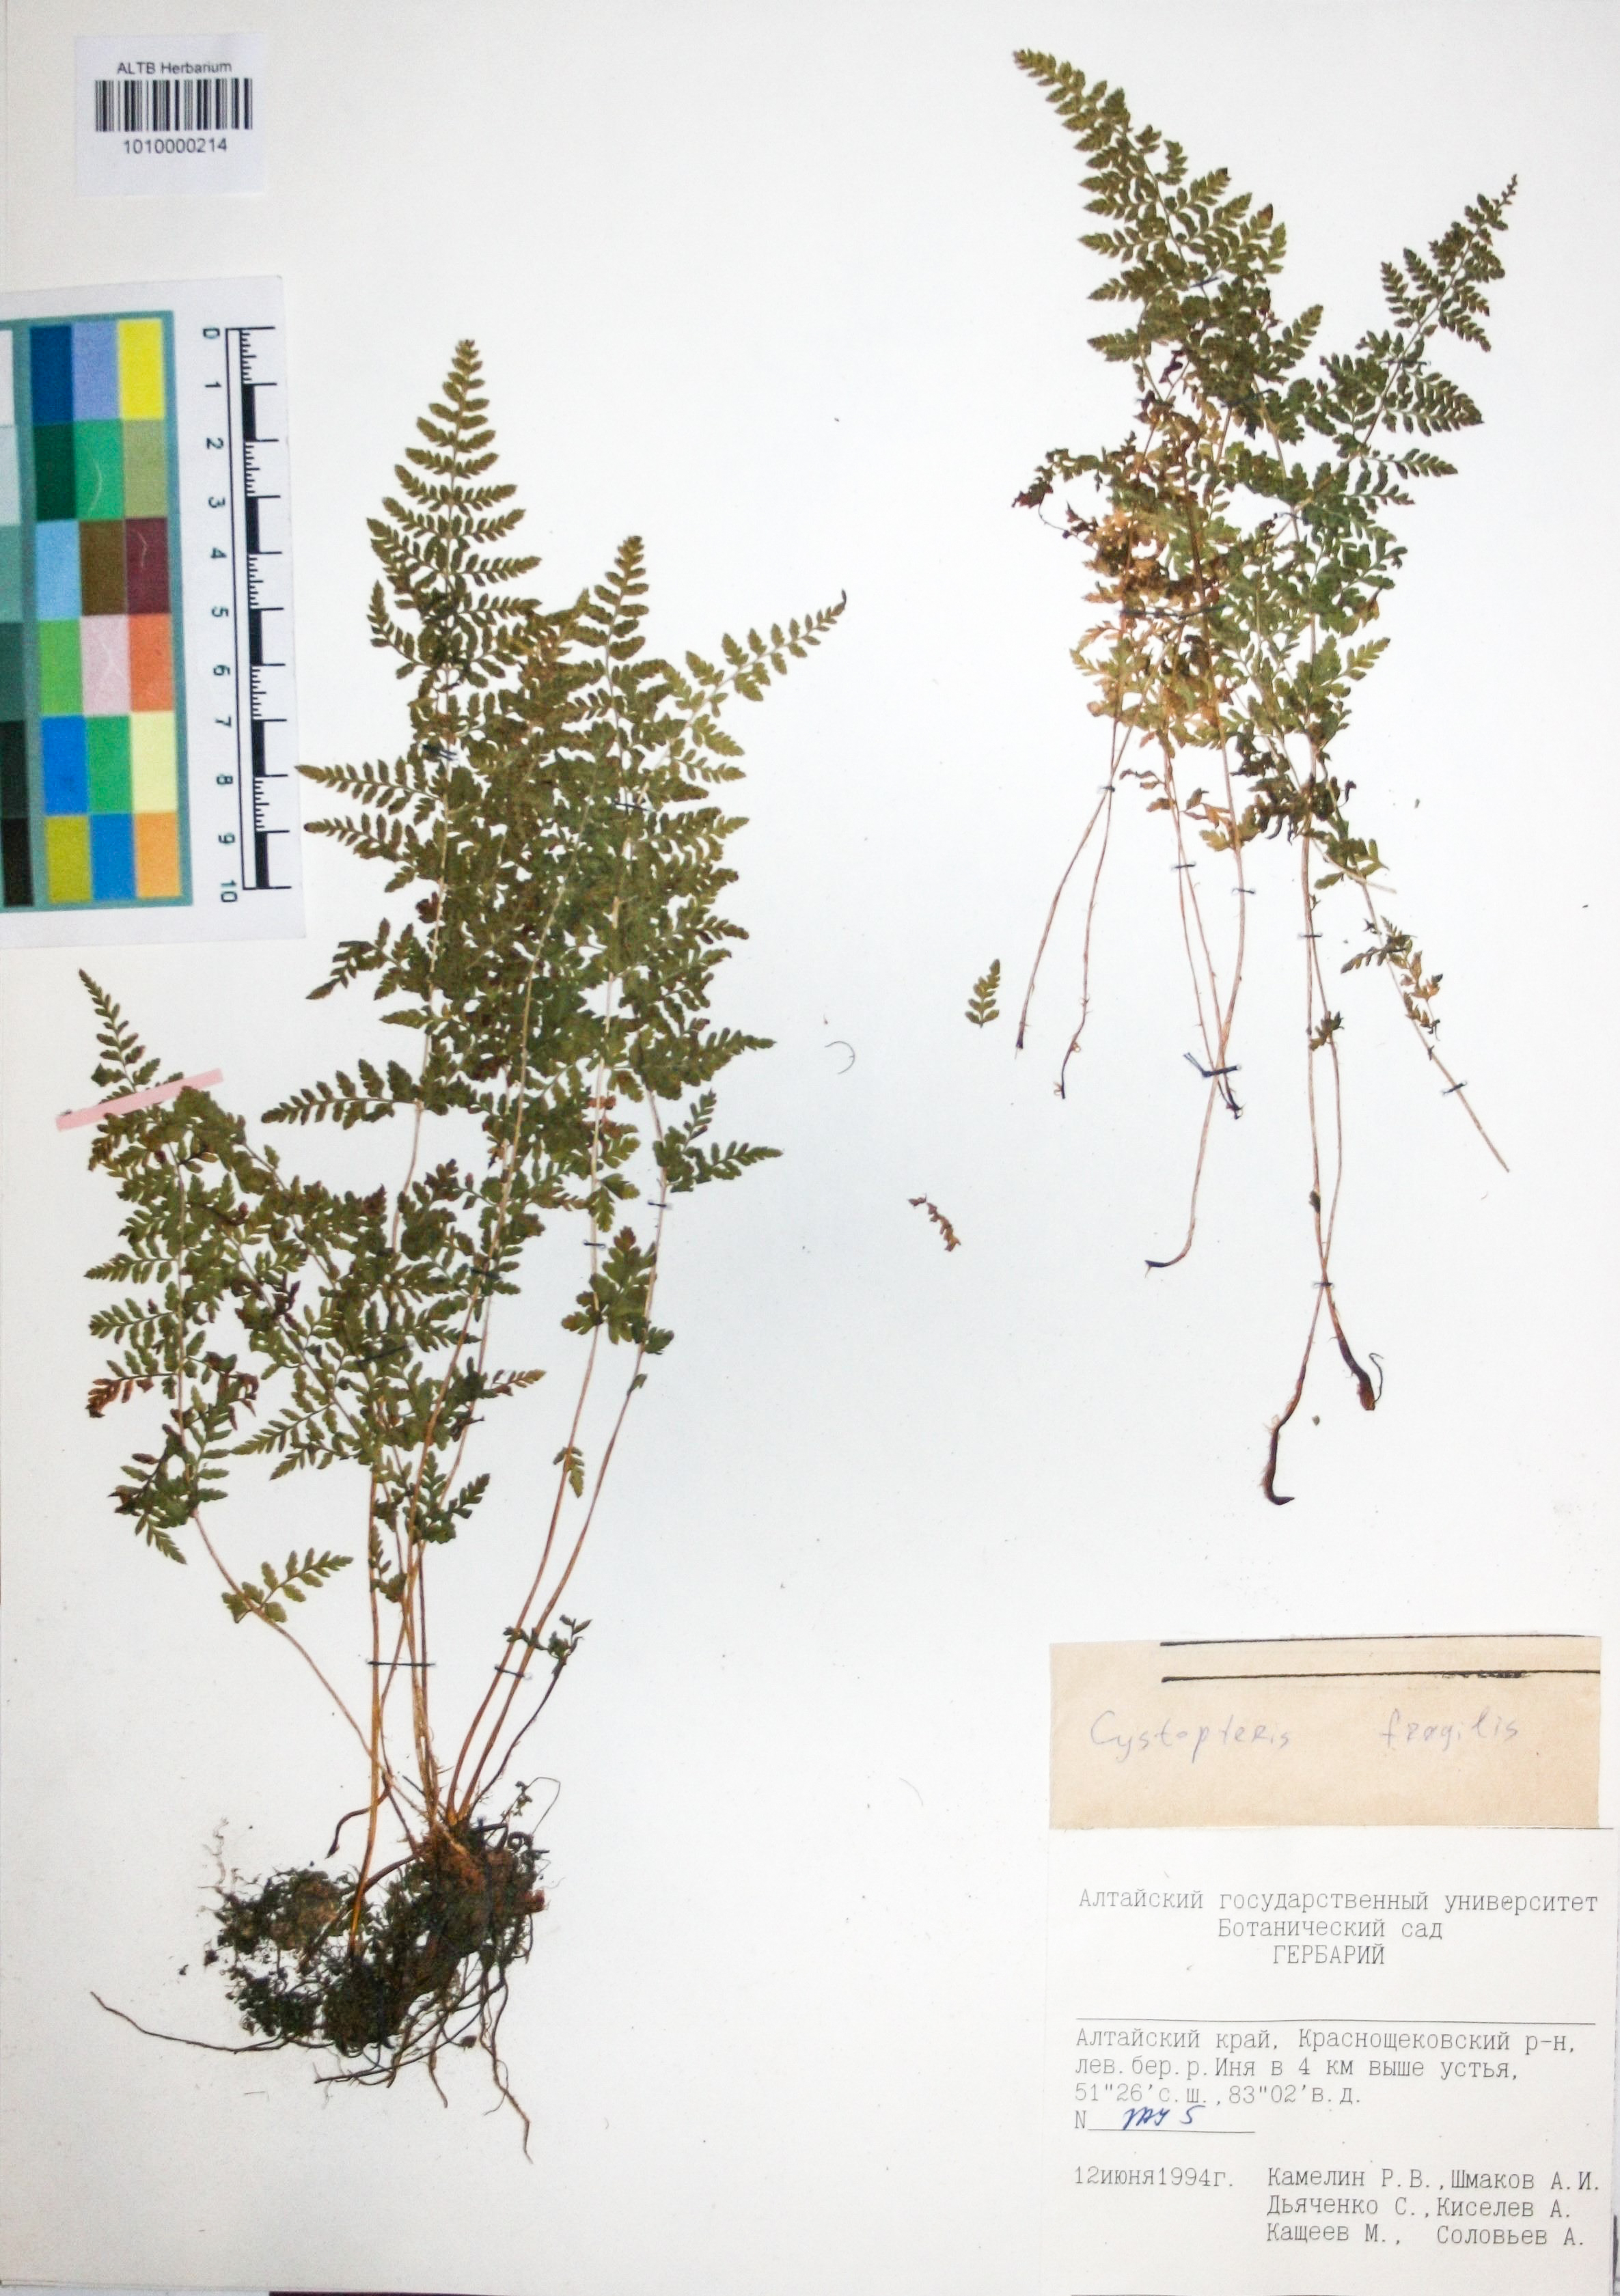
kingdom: Plantae
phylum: Tracheophyta
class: Polypodiopsida
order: Polypodiales
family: Cystopteridaceae
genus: Cystopteris
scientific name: Cystopteris fragilis
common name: Brittle bladder fern
